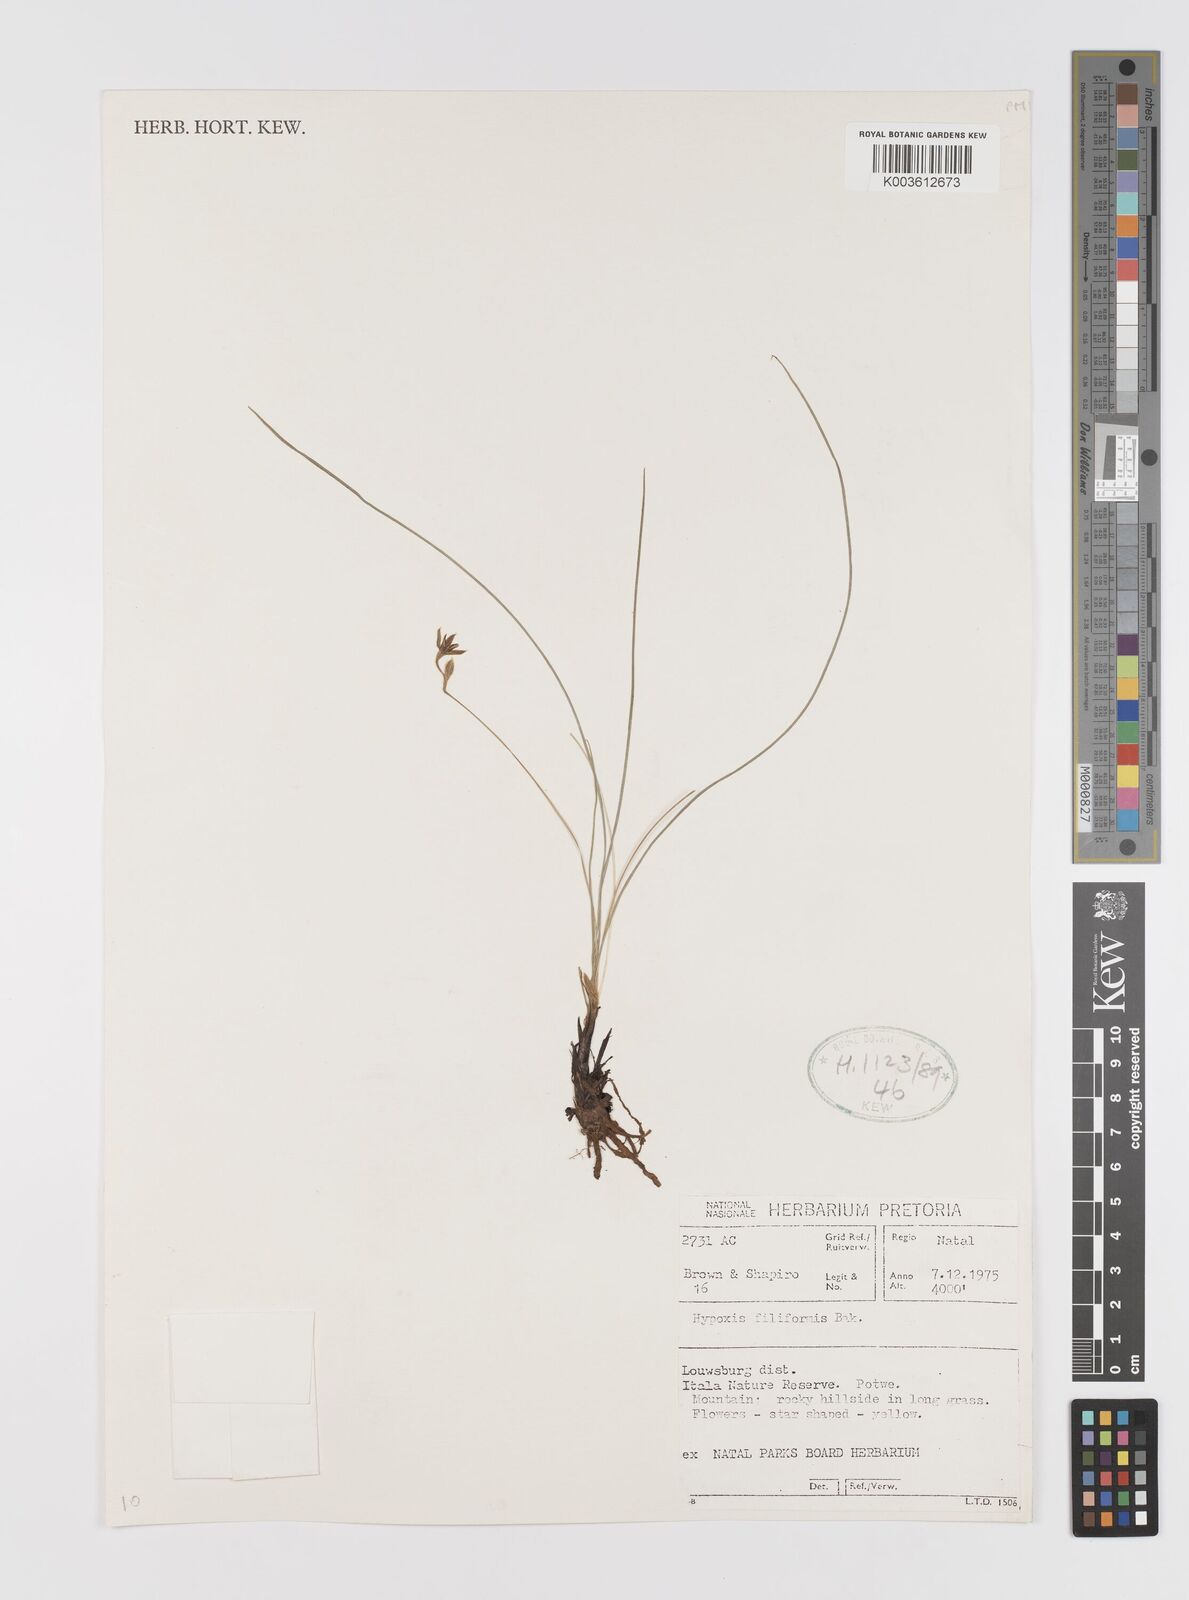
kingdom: Plantae
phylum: Tracheophyta
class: Liliopsida
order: Asparagales
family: Hypoxidaceae
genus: Hypoxis
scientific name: Hypoxis filiformis
